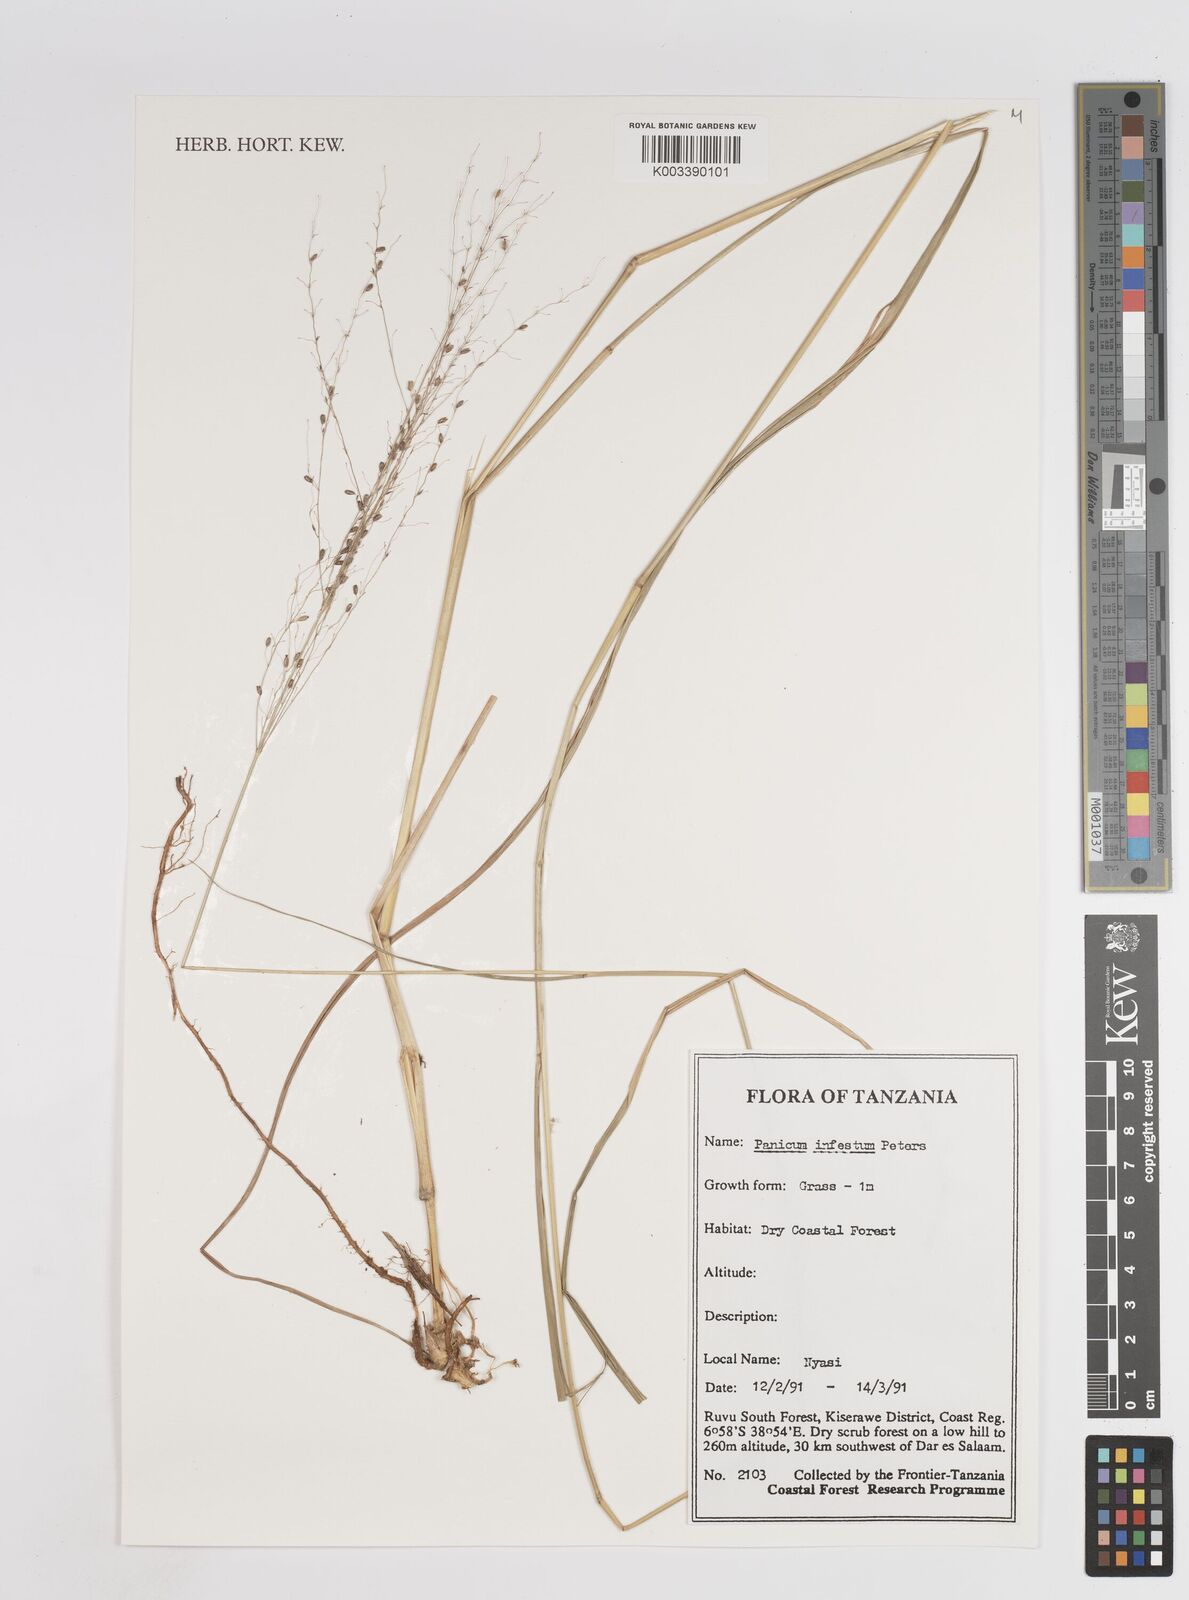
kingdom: Plantae
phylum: Tracheophyta
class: Liliopsida
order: Poales
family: Poaceae
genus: Megathyrsus
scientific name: Megathyrsus infestus
